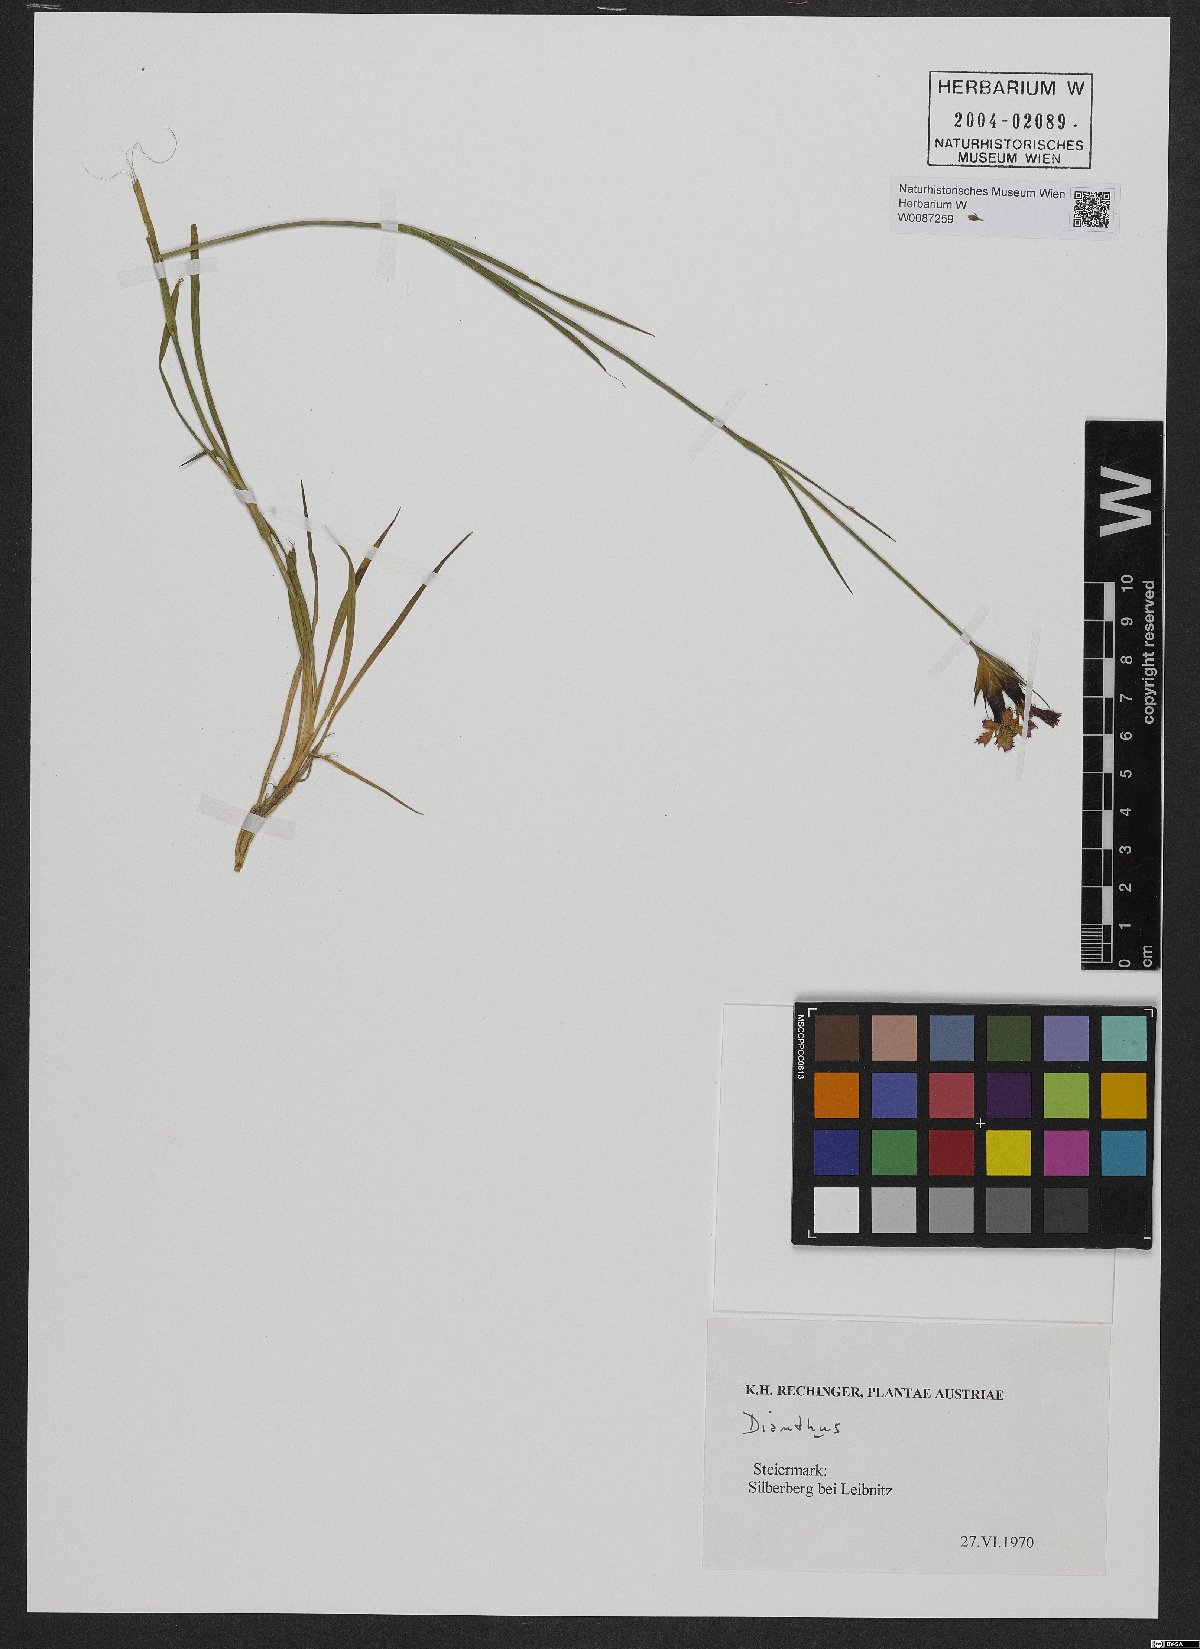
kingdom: Plantae
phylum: Tracheophyta
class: Magnoliopsida
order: Caryophyllales
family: Caryophyllaceae
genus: Dianthus
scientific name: Dianthus carthusianorum
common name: Carthusian pink
